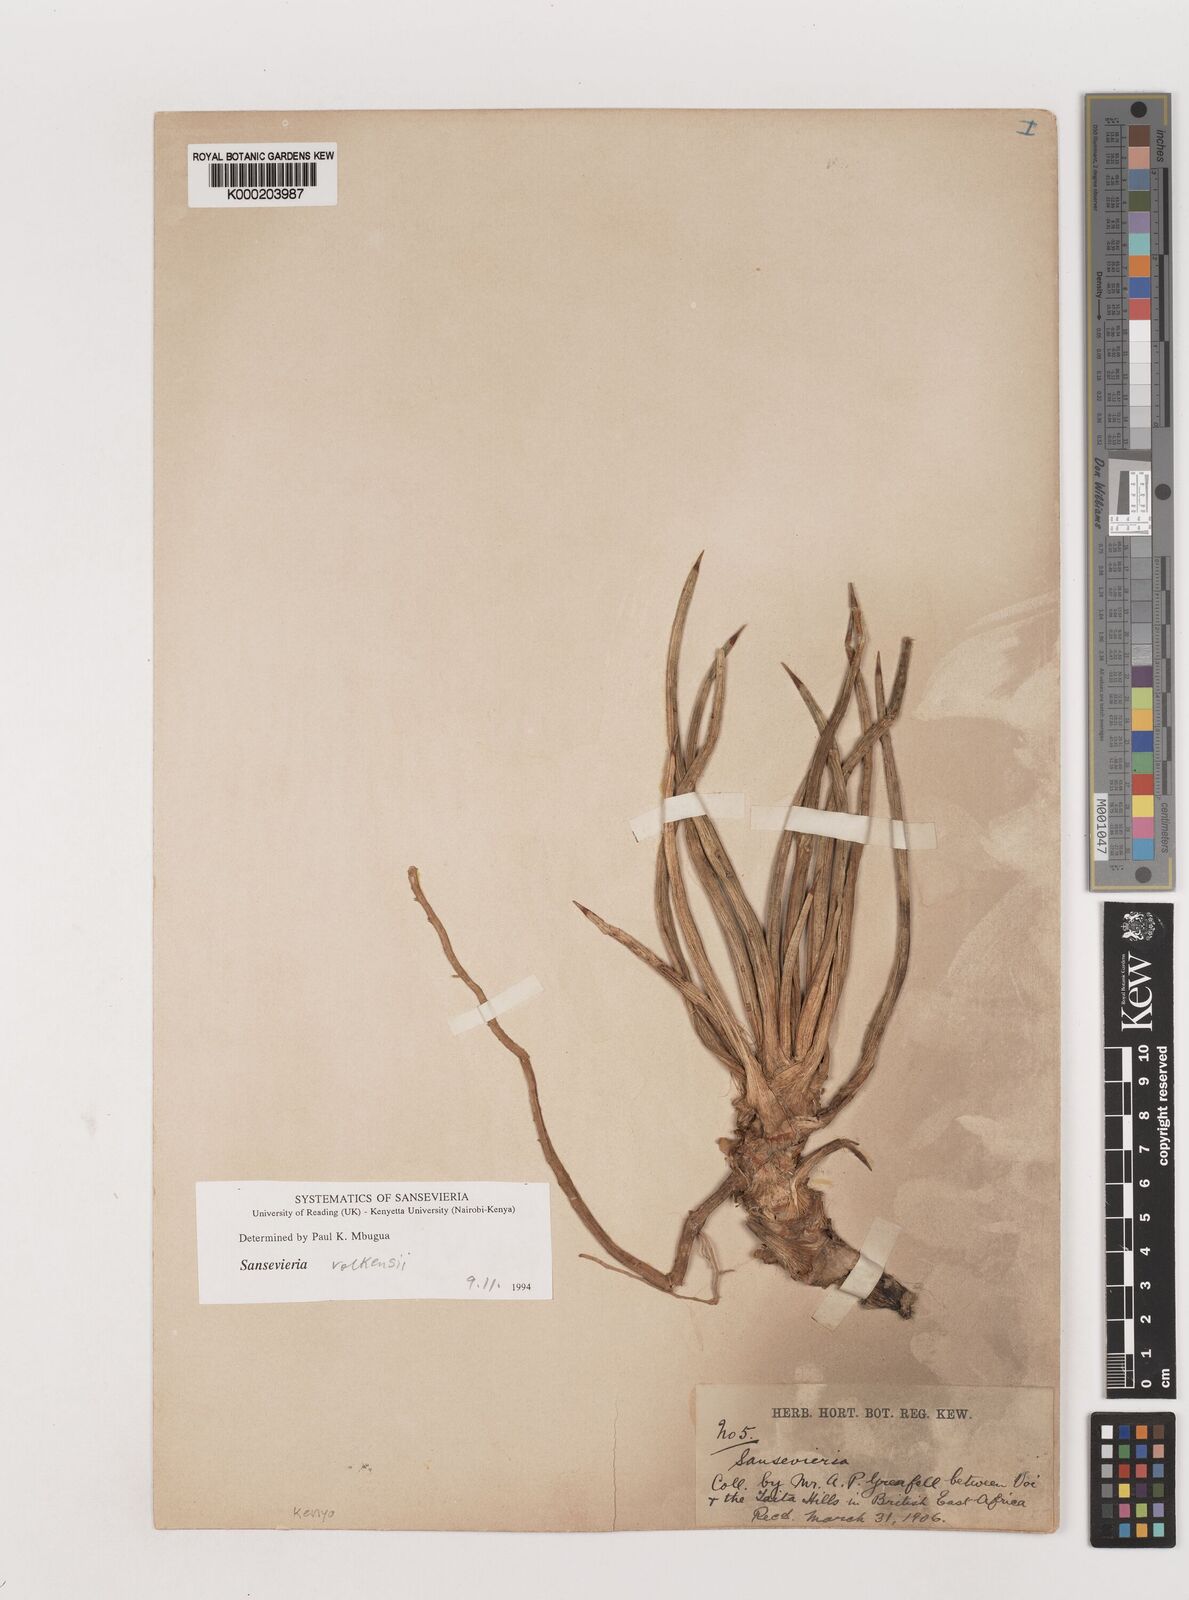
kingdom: Plantae
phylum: Tracheophyta
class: Liliopsida
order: Asparagales
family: Asparagaceae
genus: Dracaena
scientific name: Dracaena
